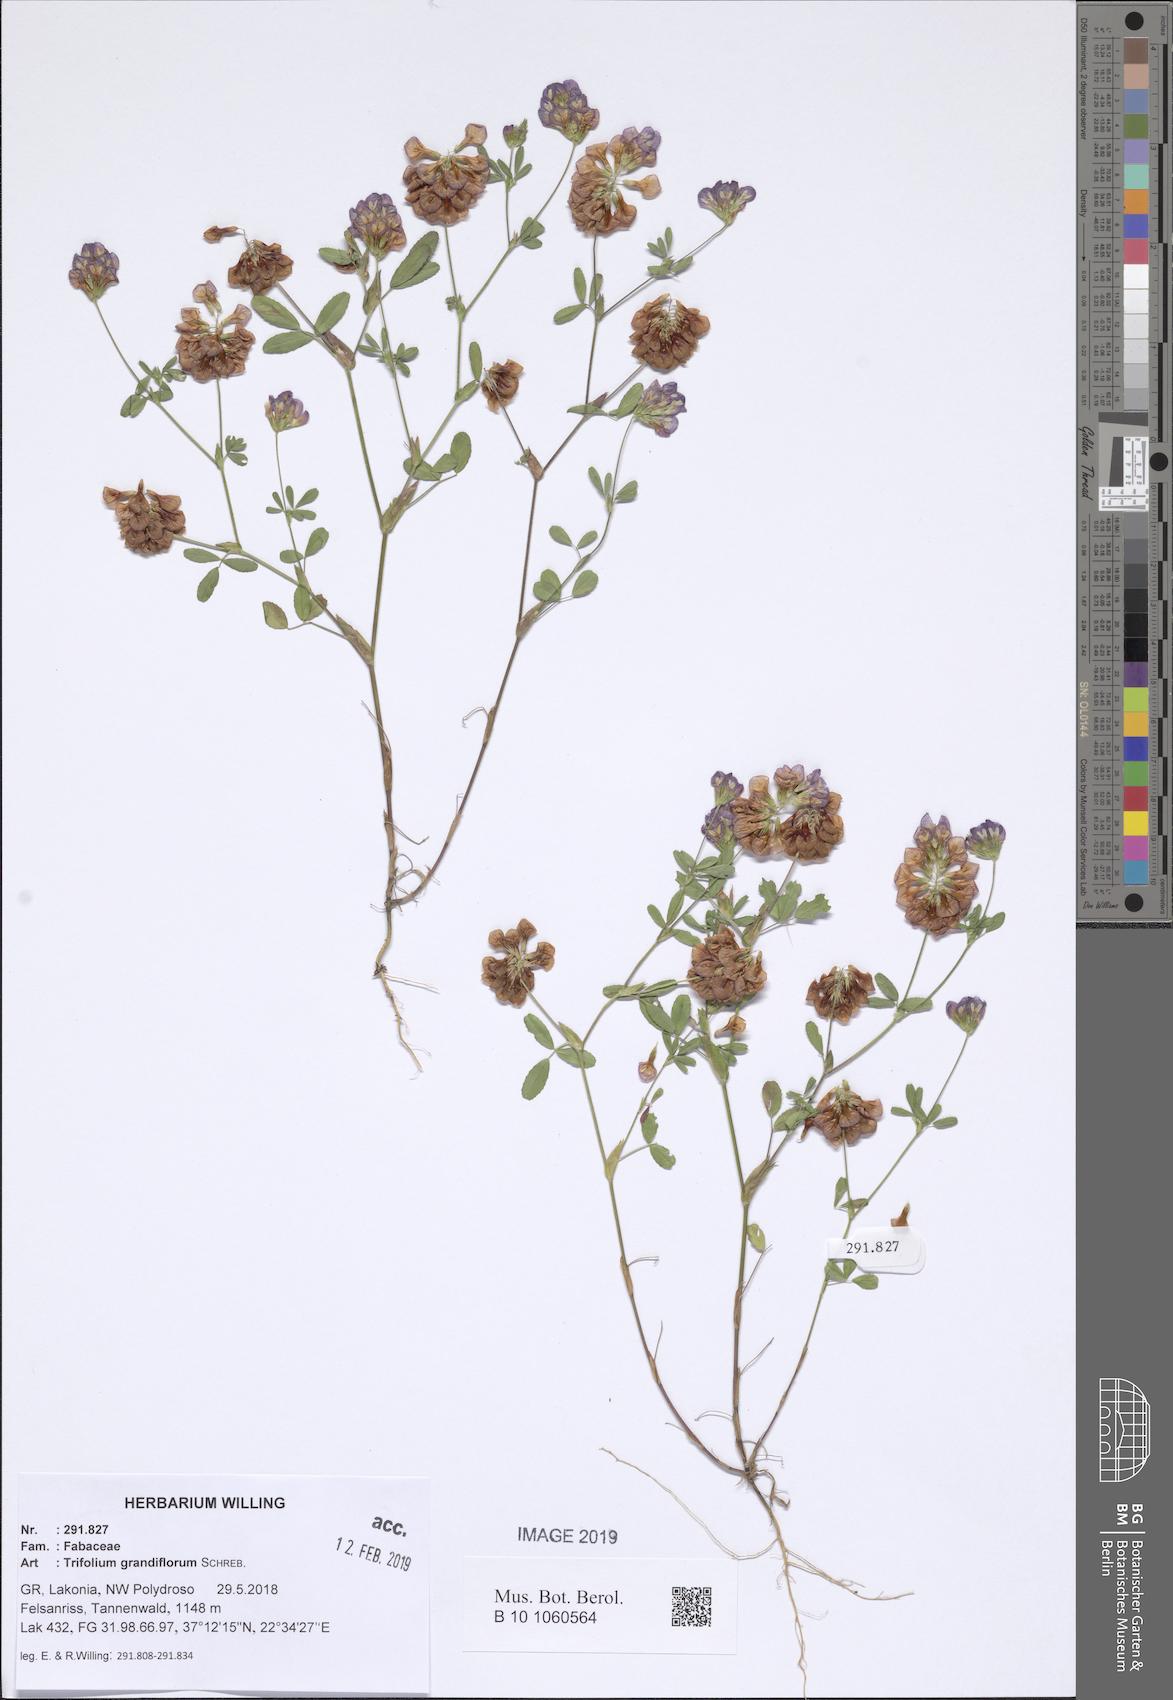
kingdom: Plantae
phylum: Tracheophyta
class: Magnoliopsida
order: Fabales
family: Fabaceae
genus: Trifolium
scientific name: Trifolium grandiflorum
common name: Large-flower hop clover
